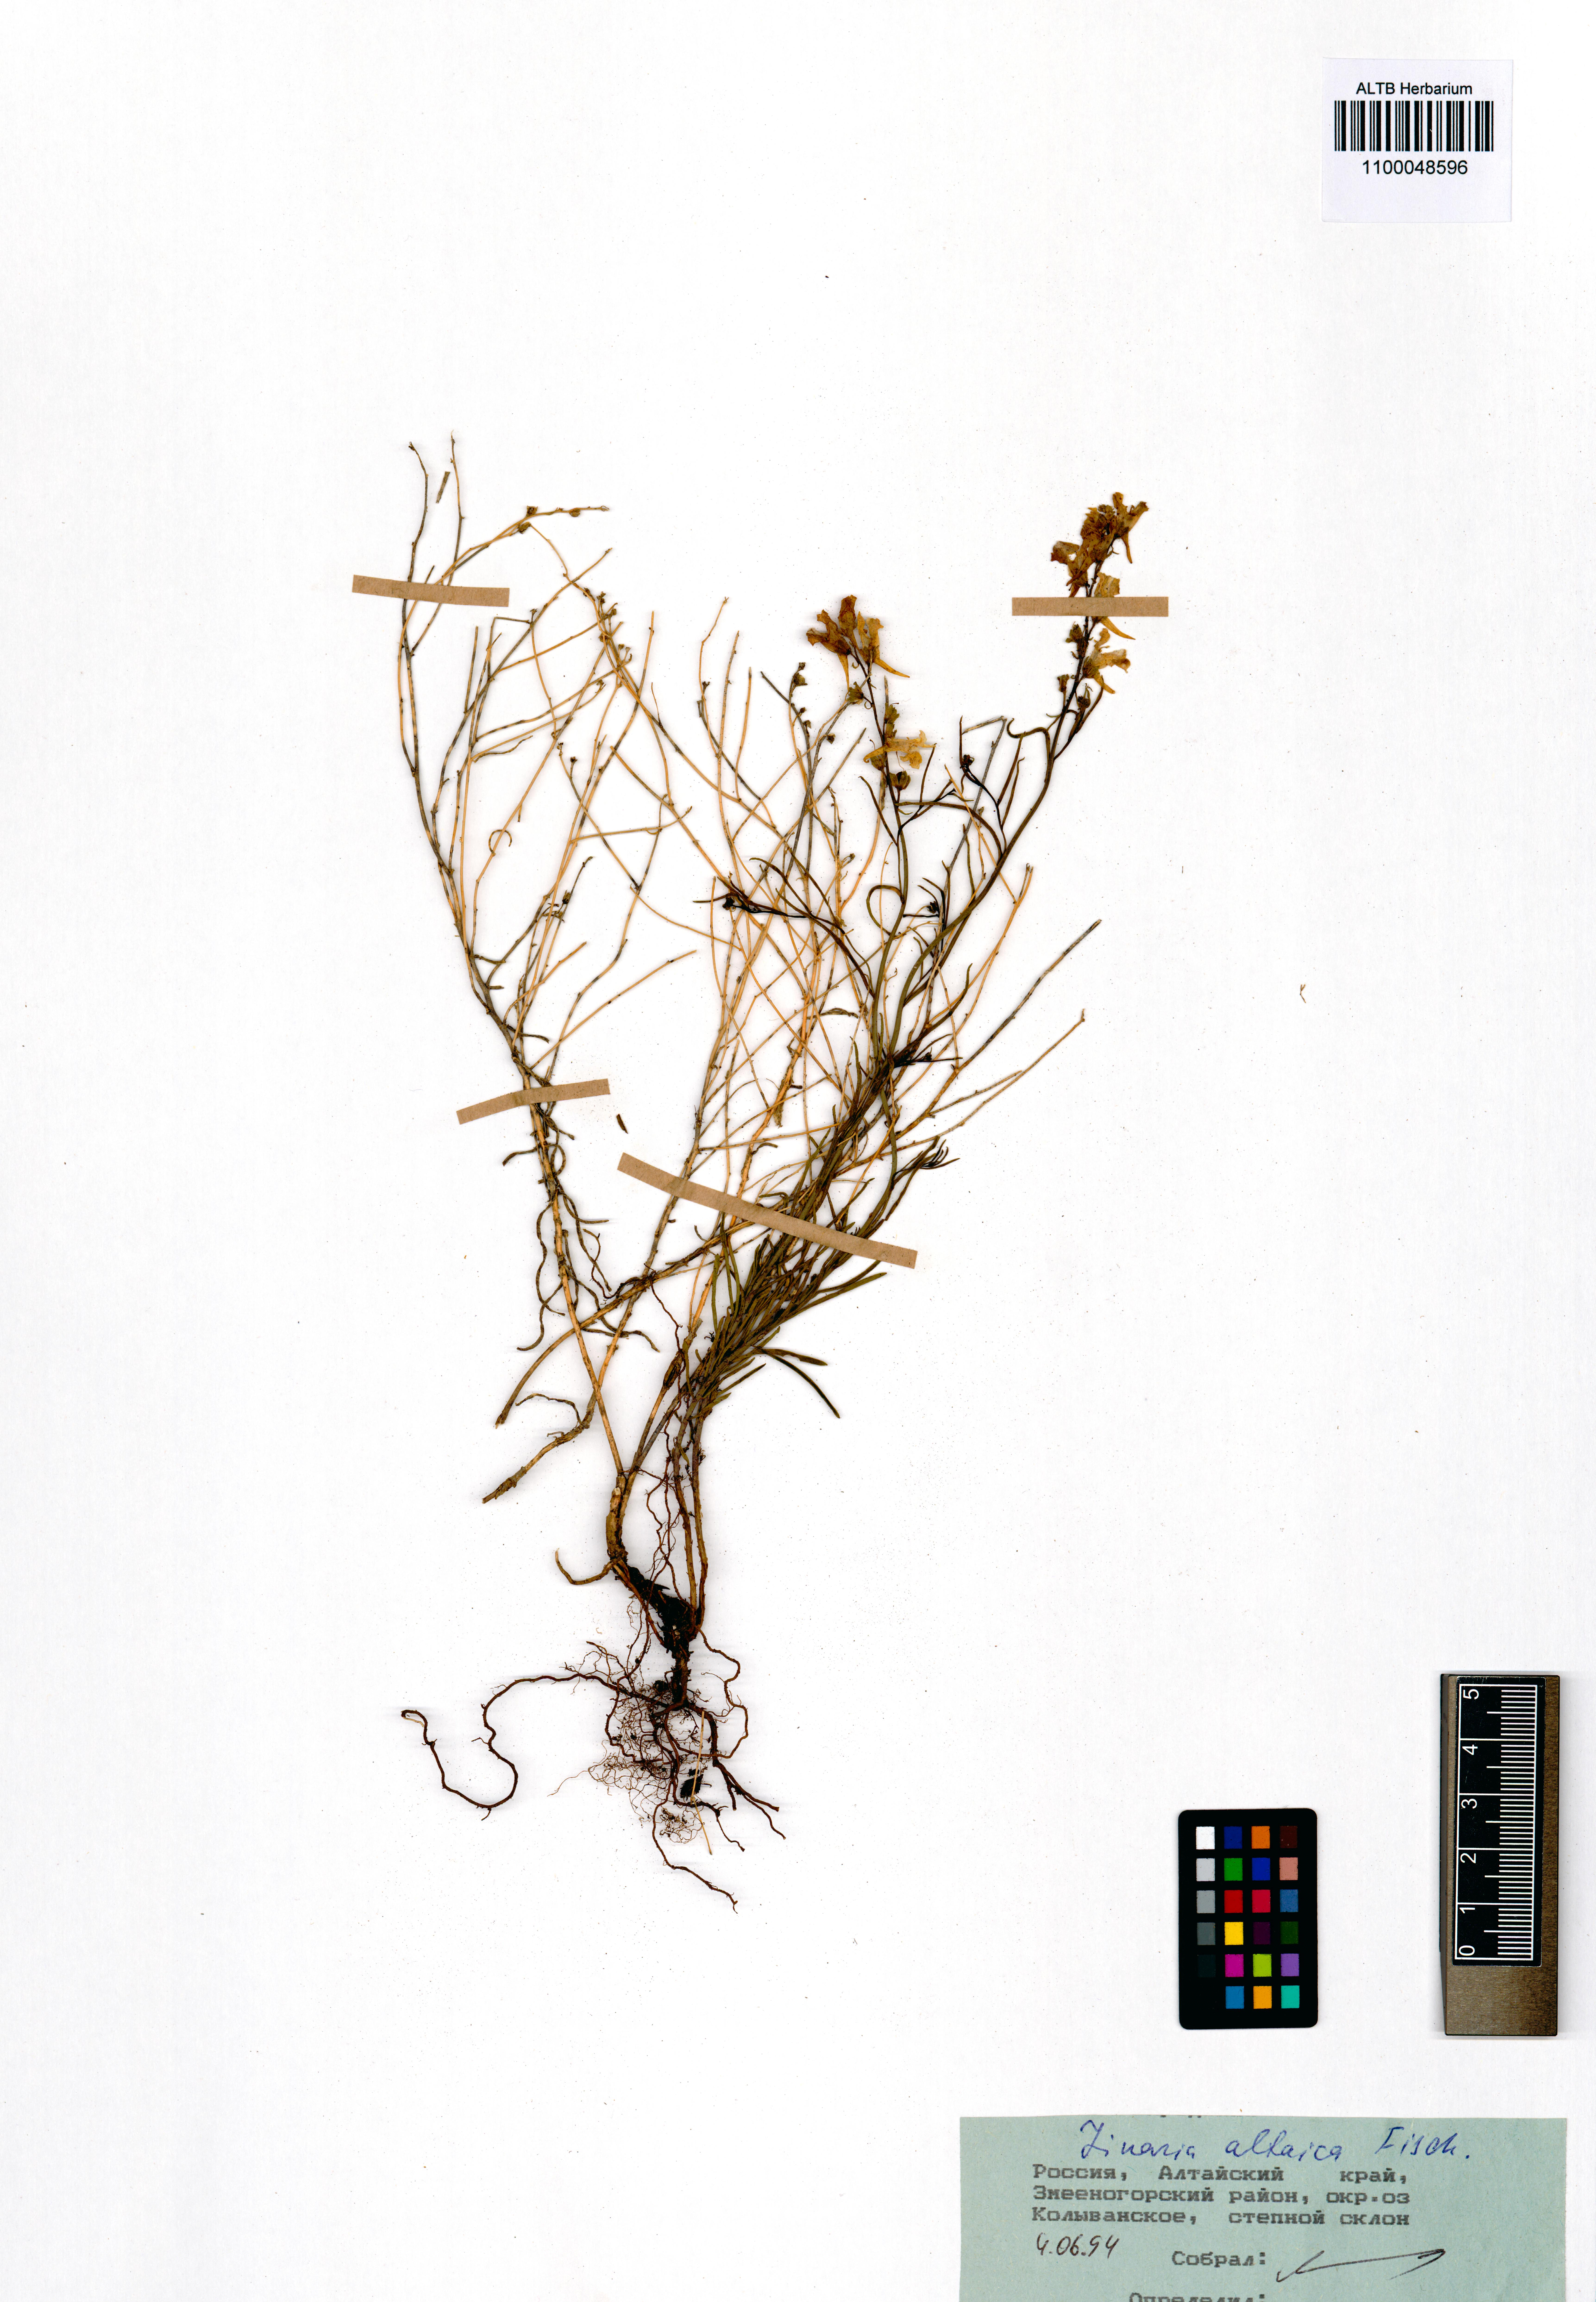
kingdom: Plantae
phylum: Tracheophyta
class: Magnoliopsida
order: Lamiales
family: Plantaginaceae
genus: Linaria
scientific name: Linaria altaica
